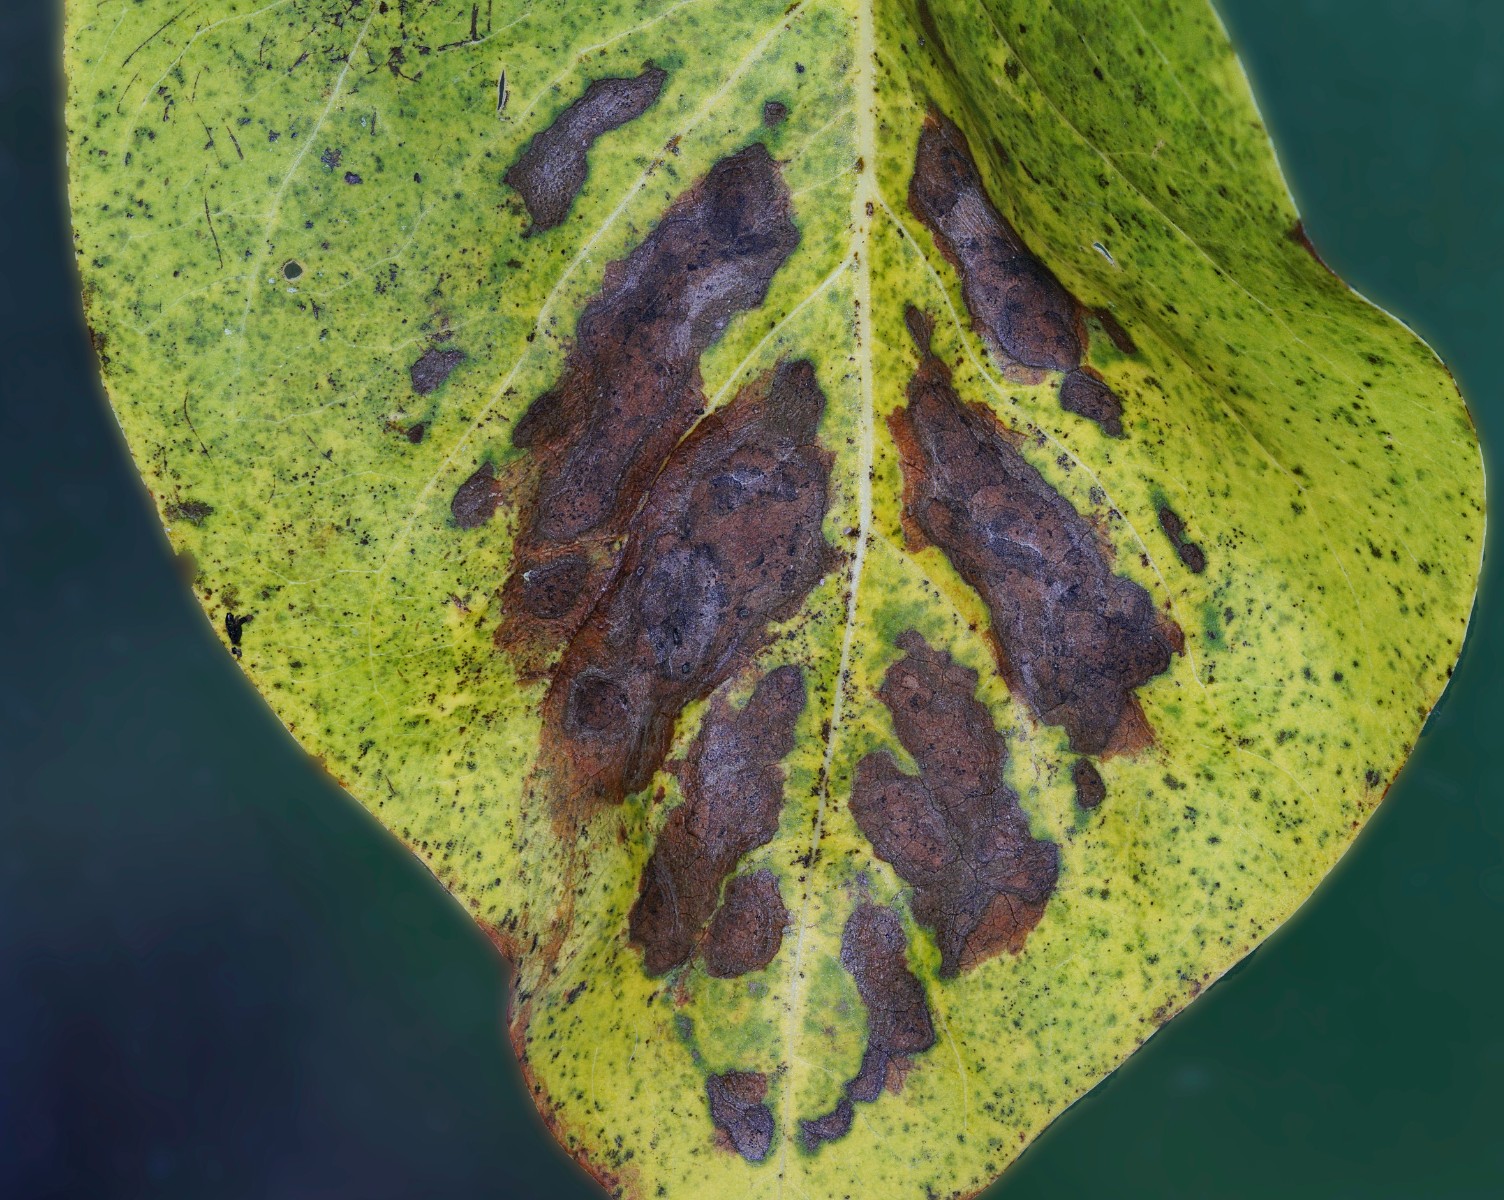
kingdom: Fungi
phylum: Ascomycota
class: Dothideomycetes
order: Pleosporales
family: Didymellaceae
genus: Ascochyta
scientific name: Ascochyta syringae
